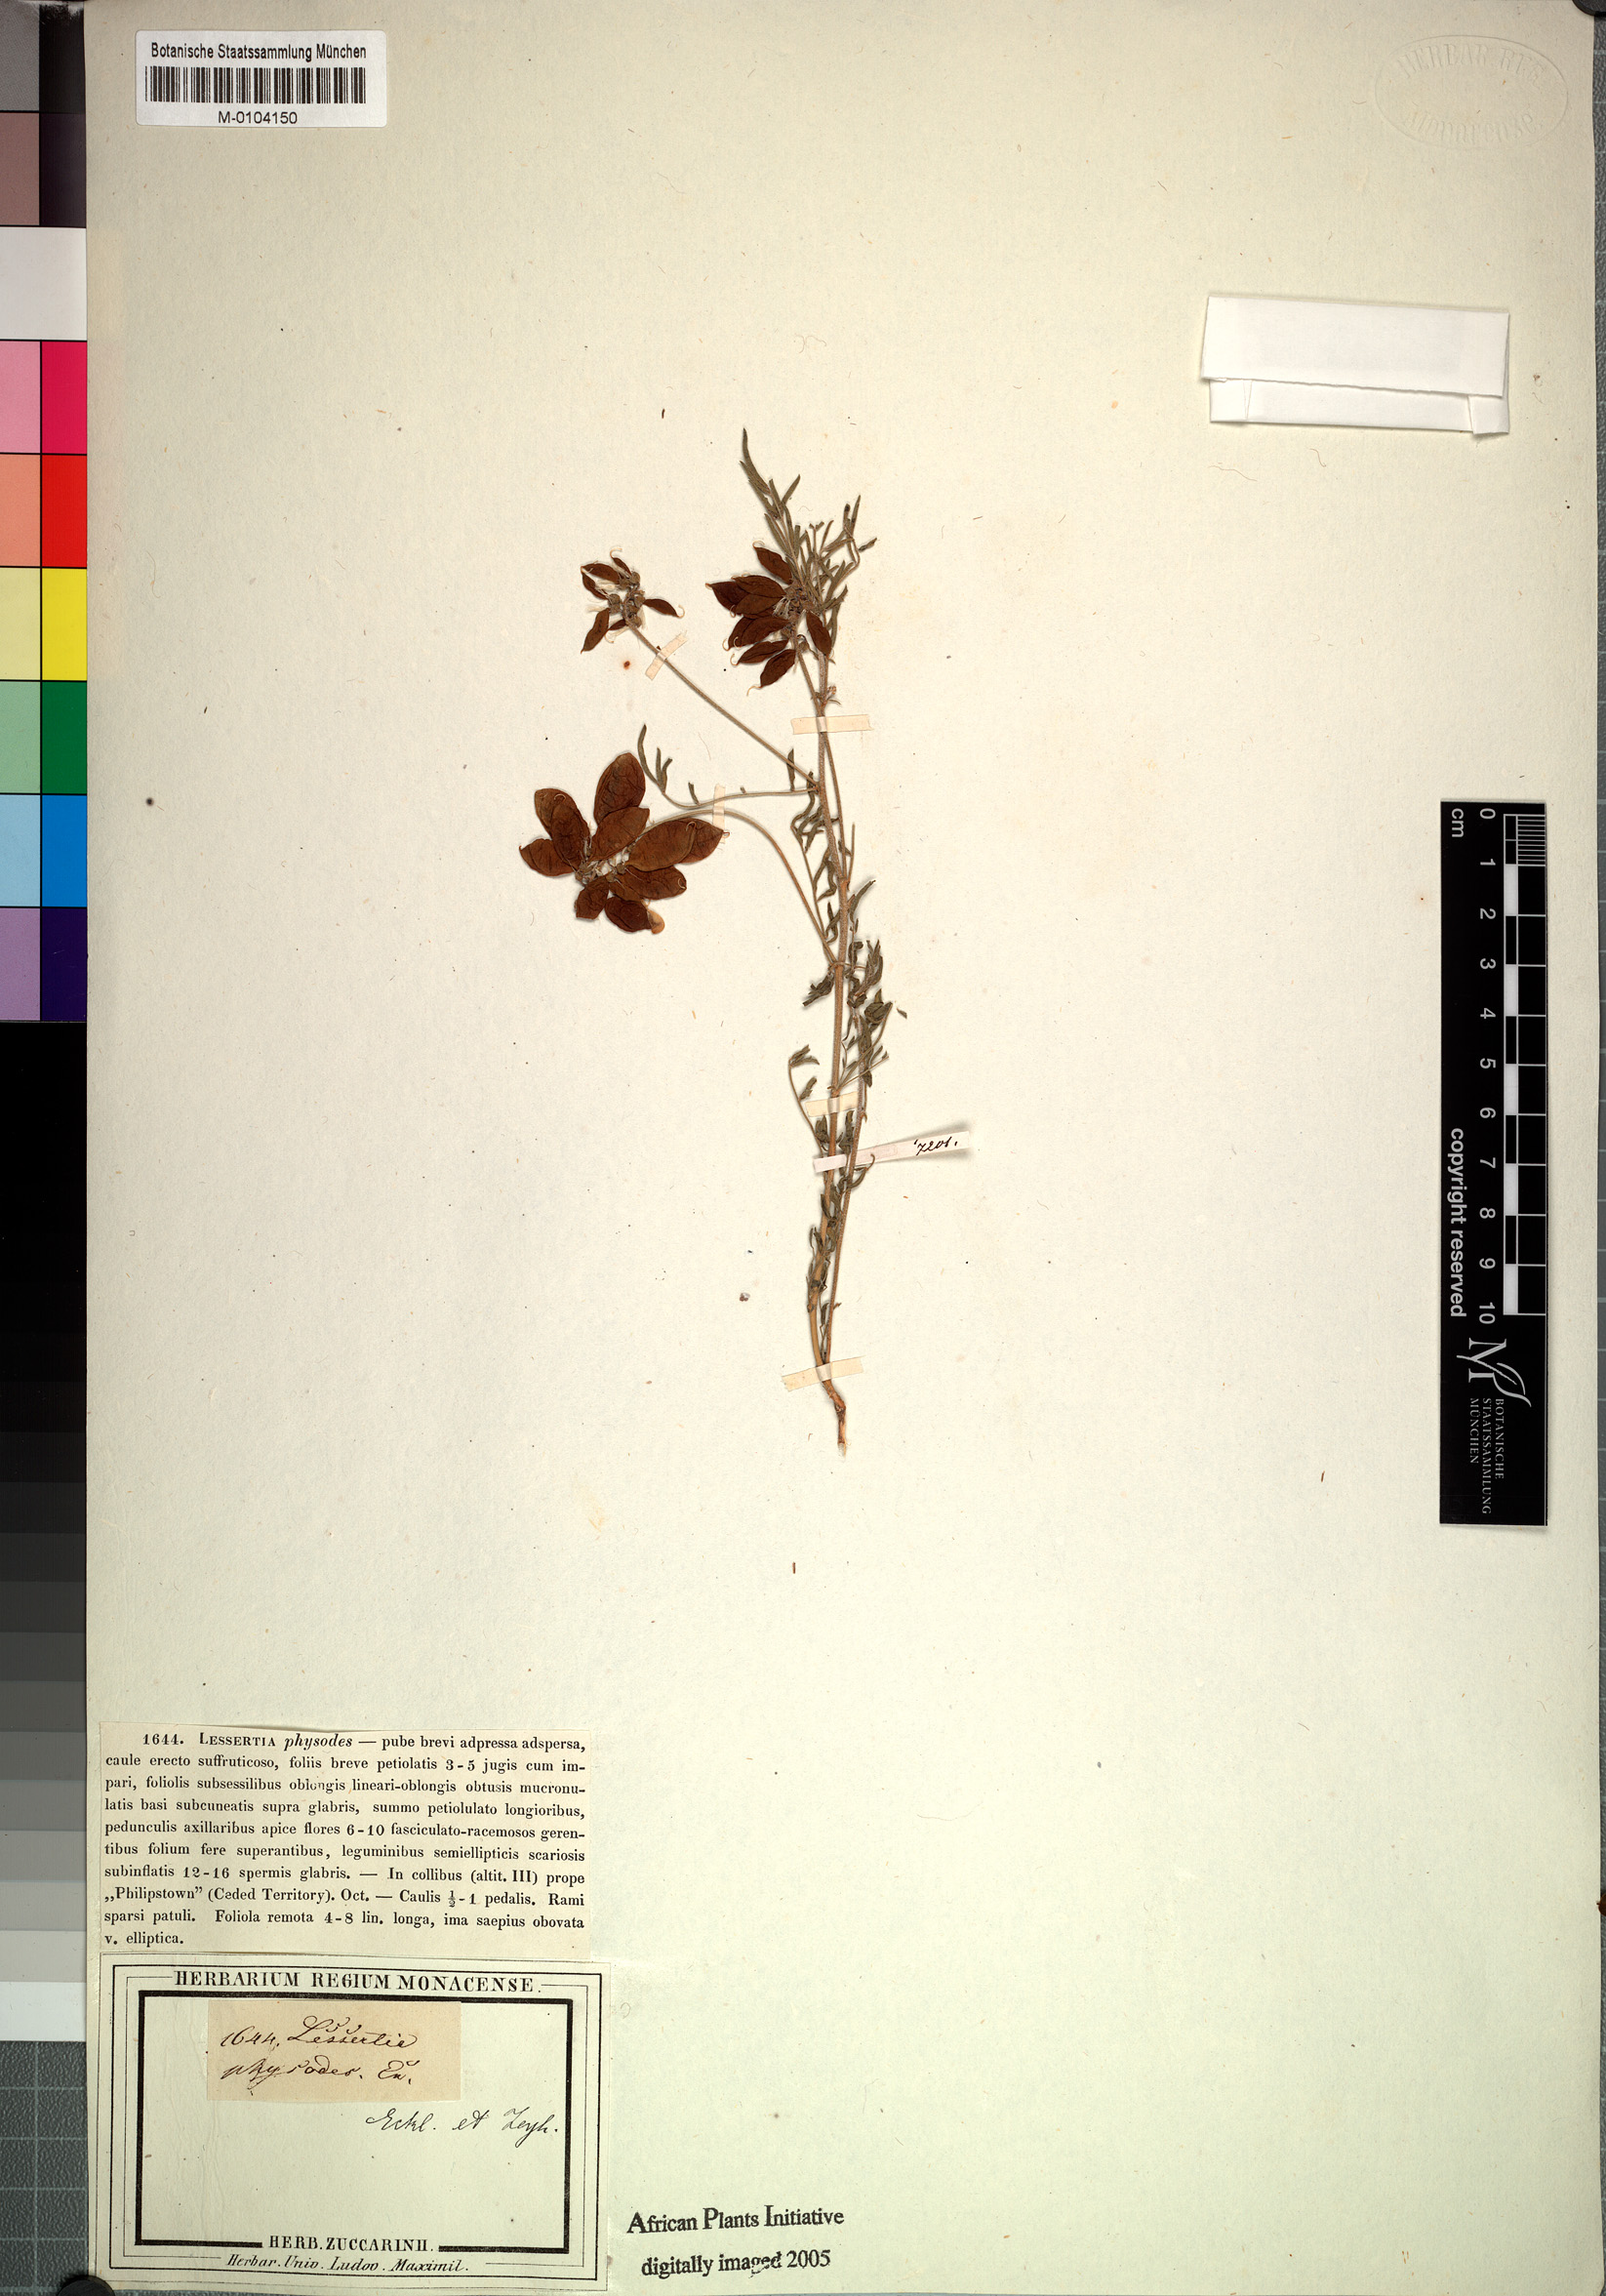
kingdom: Plantae
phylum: Tracheophyta
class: Magnoliopsida
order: Fabales
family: Fabaceae
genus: Lessertia
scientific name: Lessertia physodes
